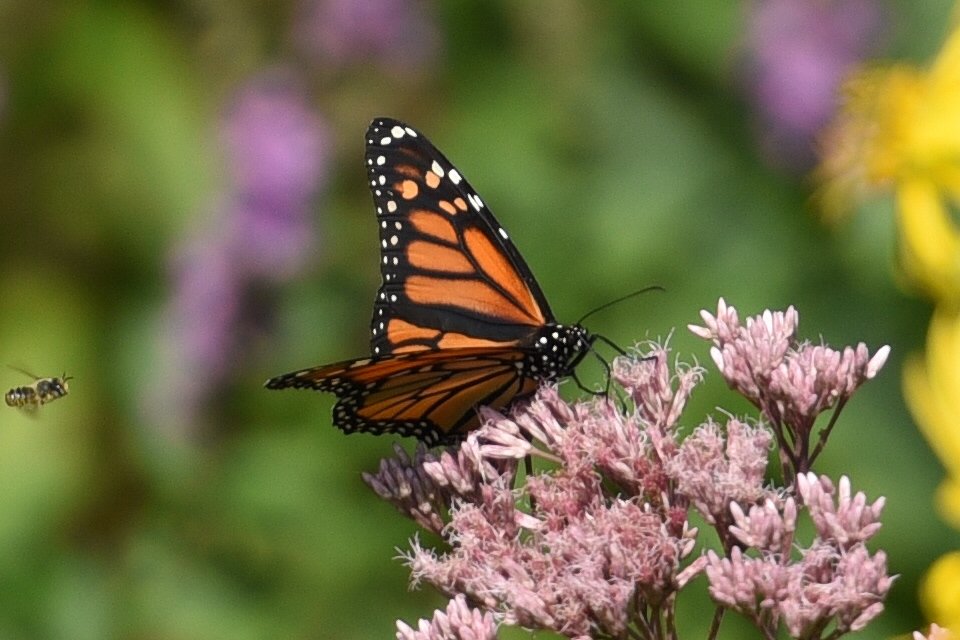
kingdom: Animalia
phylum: Arthropoda
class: Insecta
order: Lepidoptera
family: Nymphalidae
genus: Danaus
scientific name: Danaus plexippus
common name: Monarch
